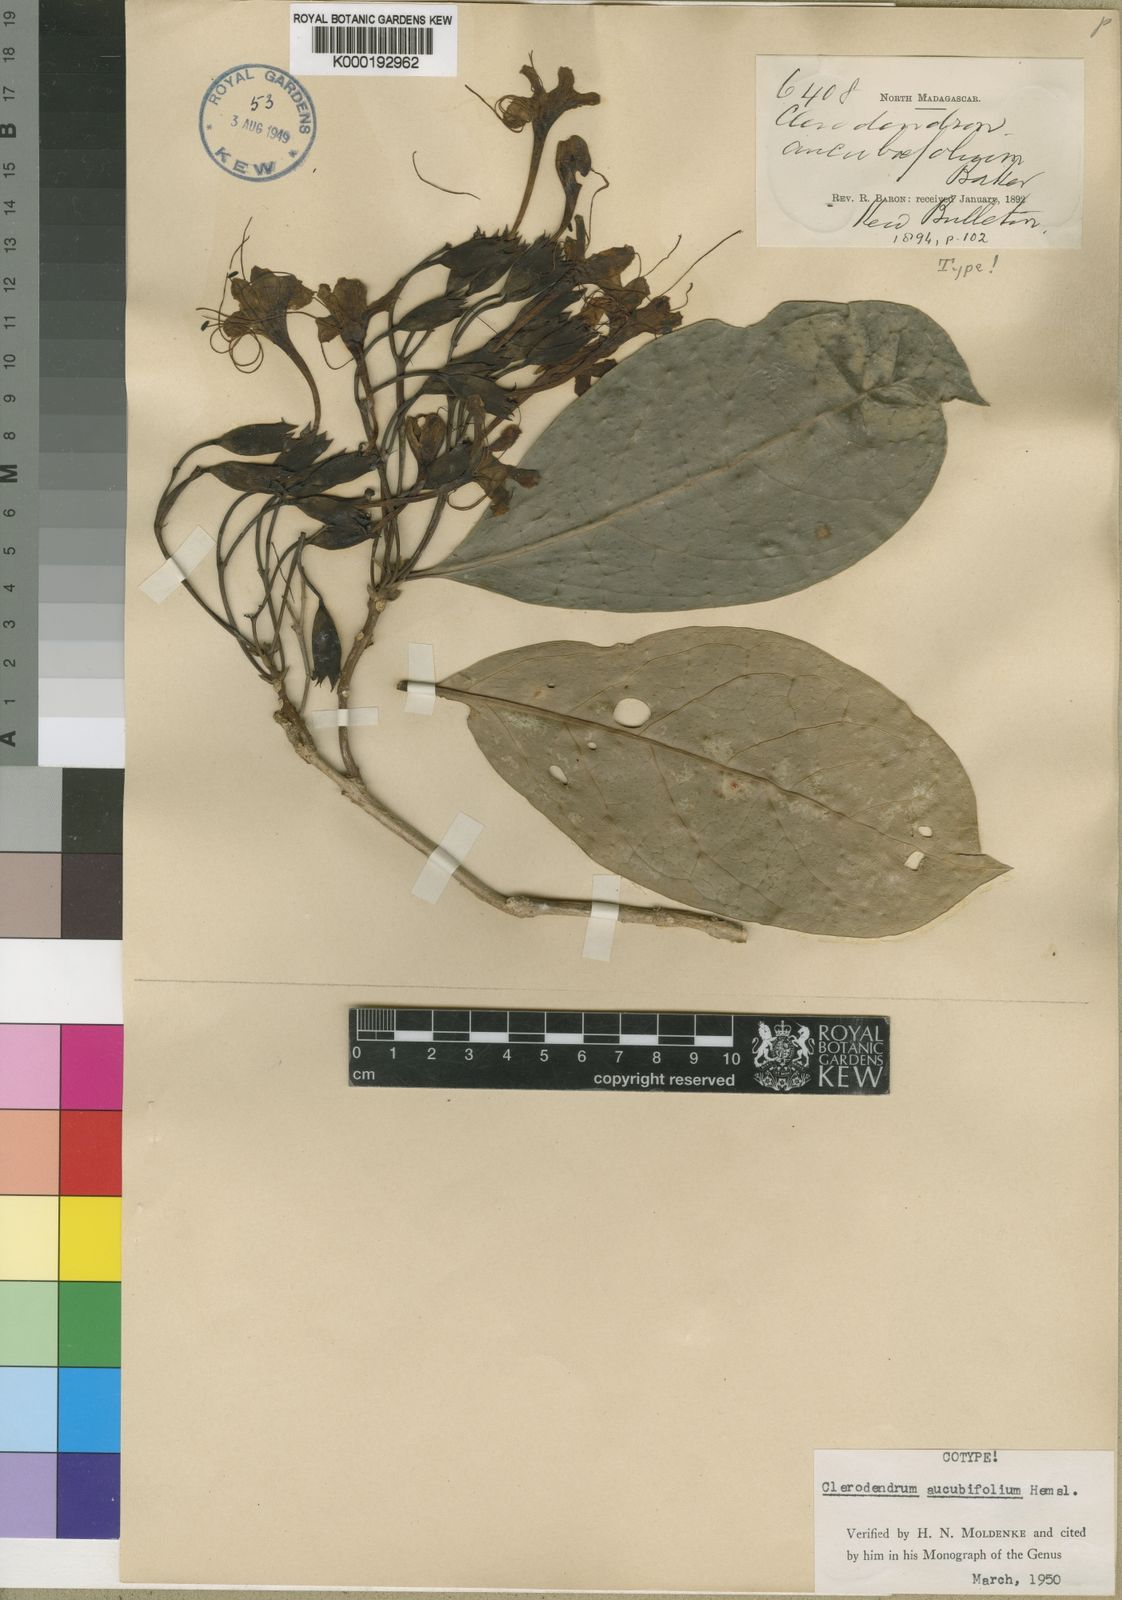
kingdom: Plantae
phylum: Tracheophyta
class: Magnoliopsida
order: Lamiales
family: Lamiaceae
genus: Clerodendrum
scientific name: Clerodendrum aucubifolium
